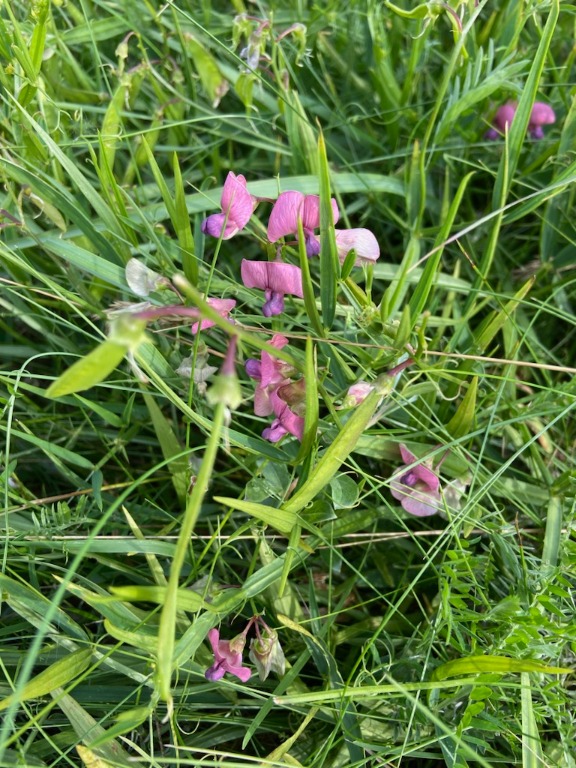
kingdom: Plantae
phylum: Tracheophyta
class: Magnoliopsida
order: Fabales
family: Fabaceae
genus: Lathyrus
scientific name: Lathyrus sylvestris
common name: Skov-fladbælg
